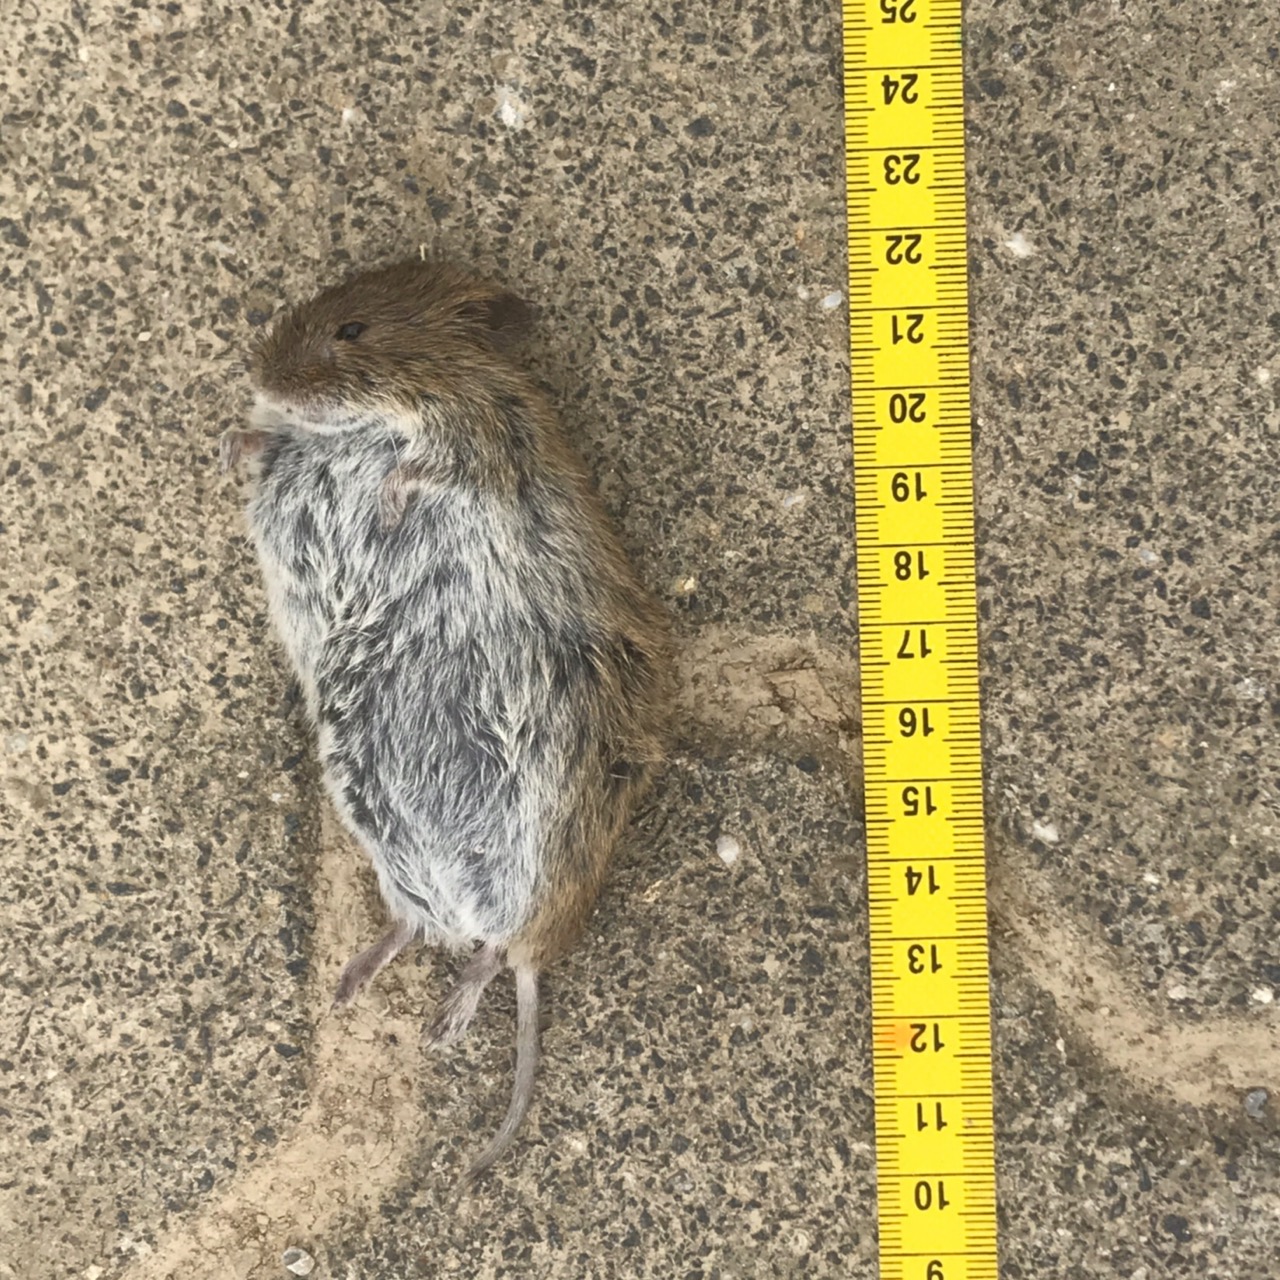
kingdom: Animalia
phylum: Chordata
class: Mammalia
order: Rodentia
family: Cricetidae
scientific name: Cricetidae
